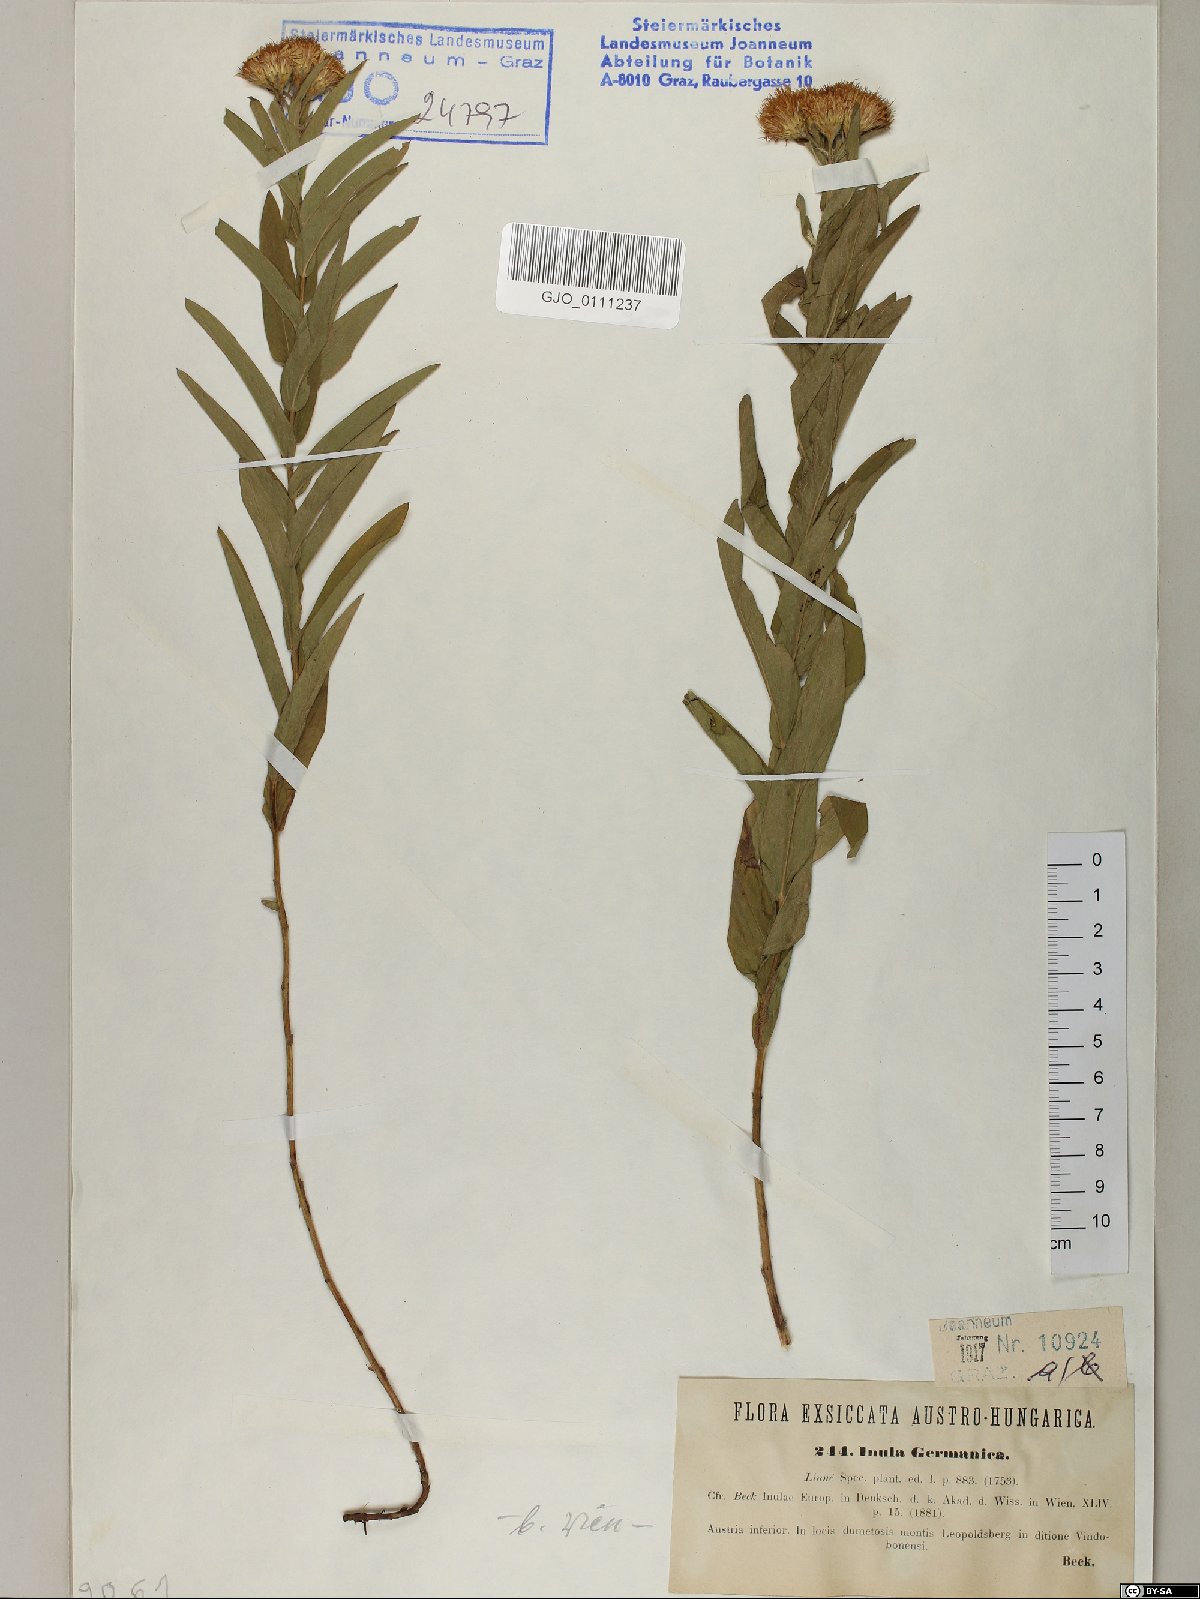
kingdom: Plantae
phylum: Tracheophyta
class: Magnoliopsida
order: Asterales
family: Asteraceae
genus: Pentanema
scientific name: Pentanema germanicum
